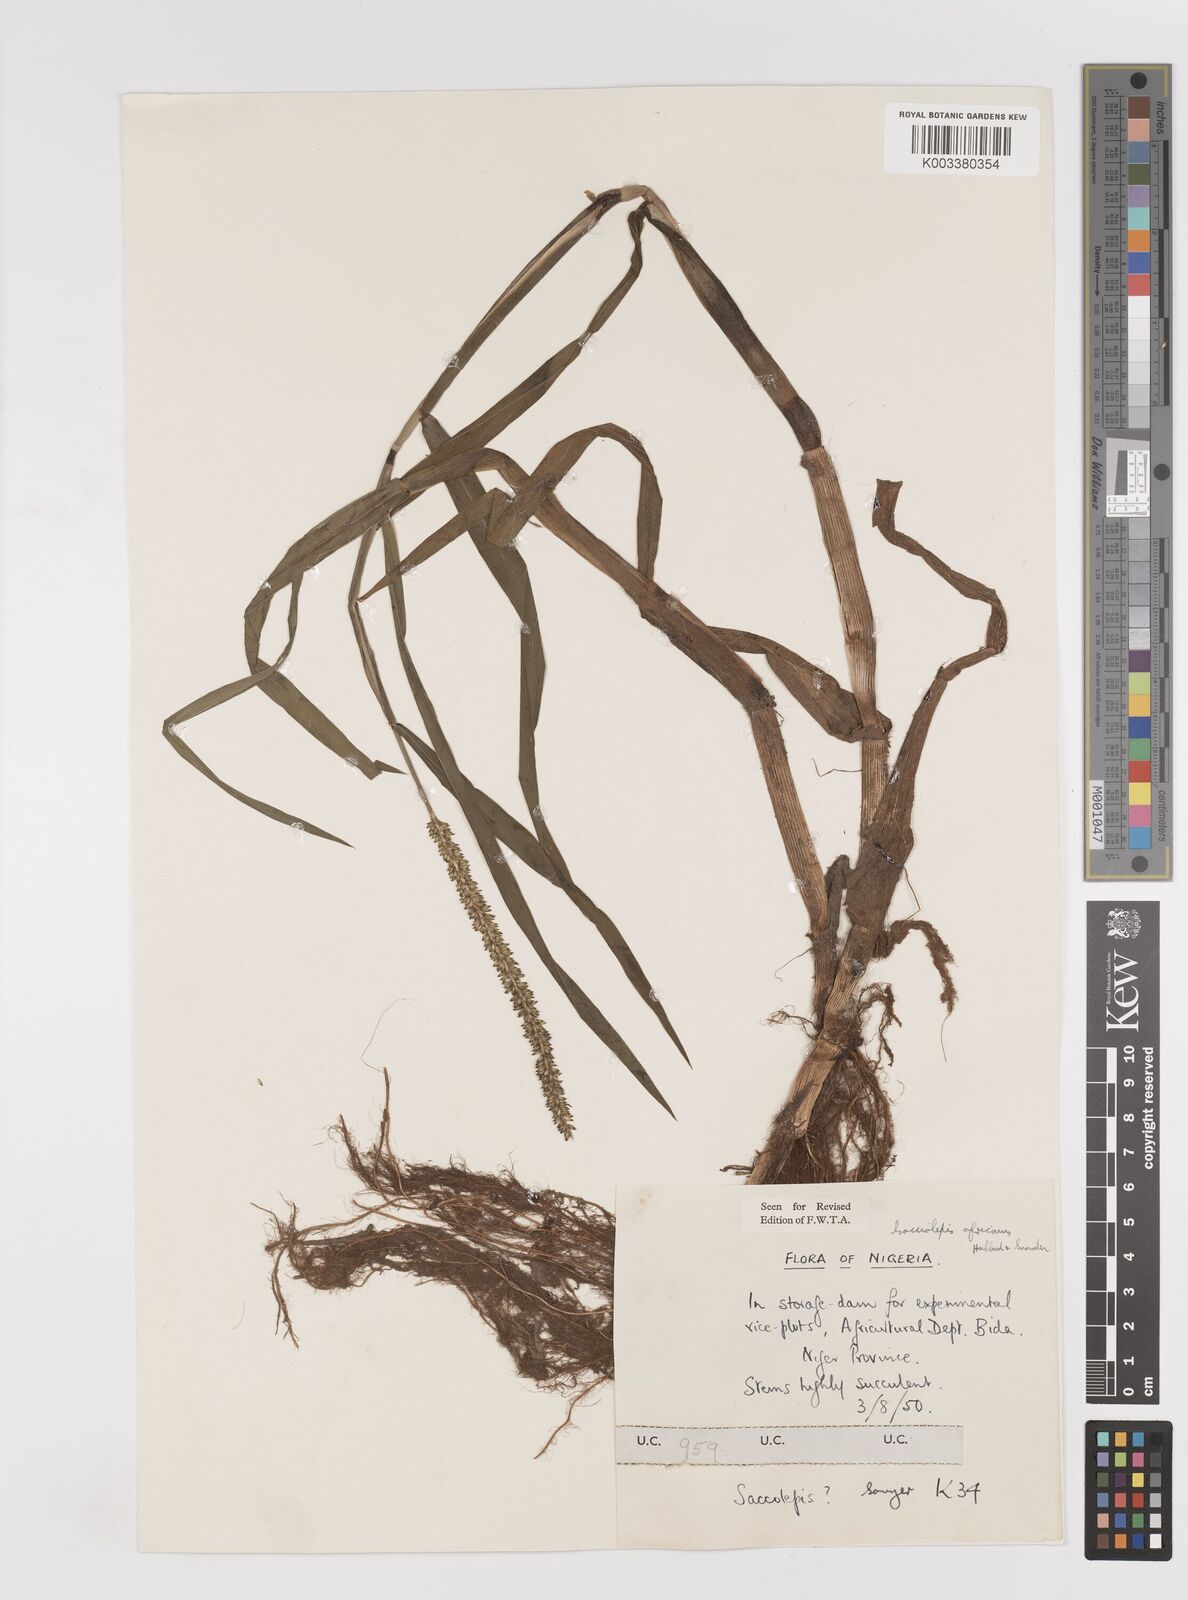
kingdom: Plantae
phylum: Tracheophyta
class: Liliopsida
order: Poales
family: Poaceae
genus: Sacciolepis
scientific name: Sacciolepis africana
